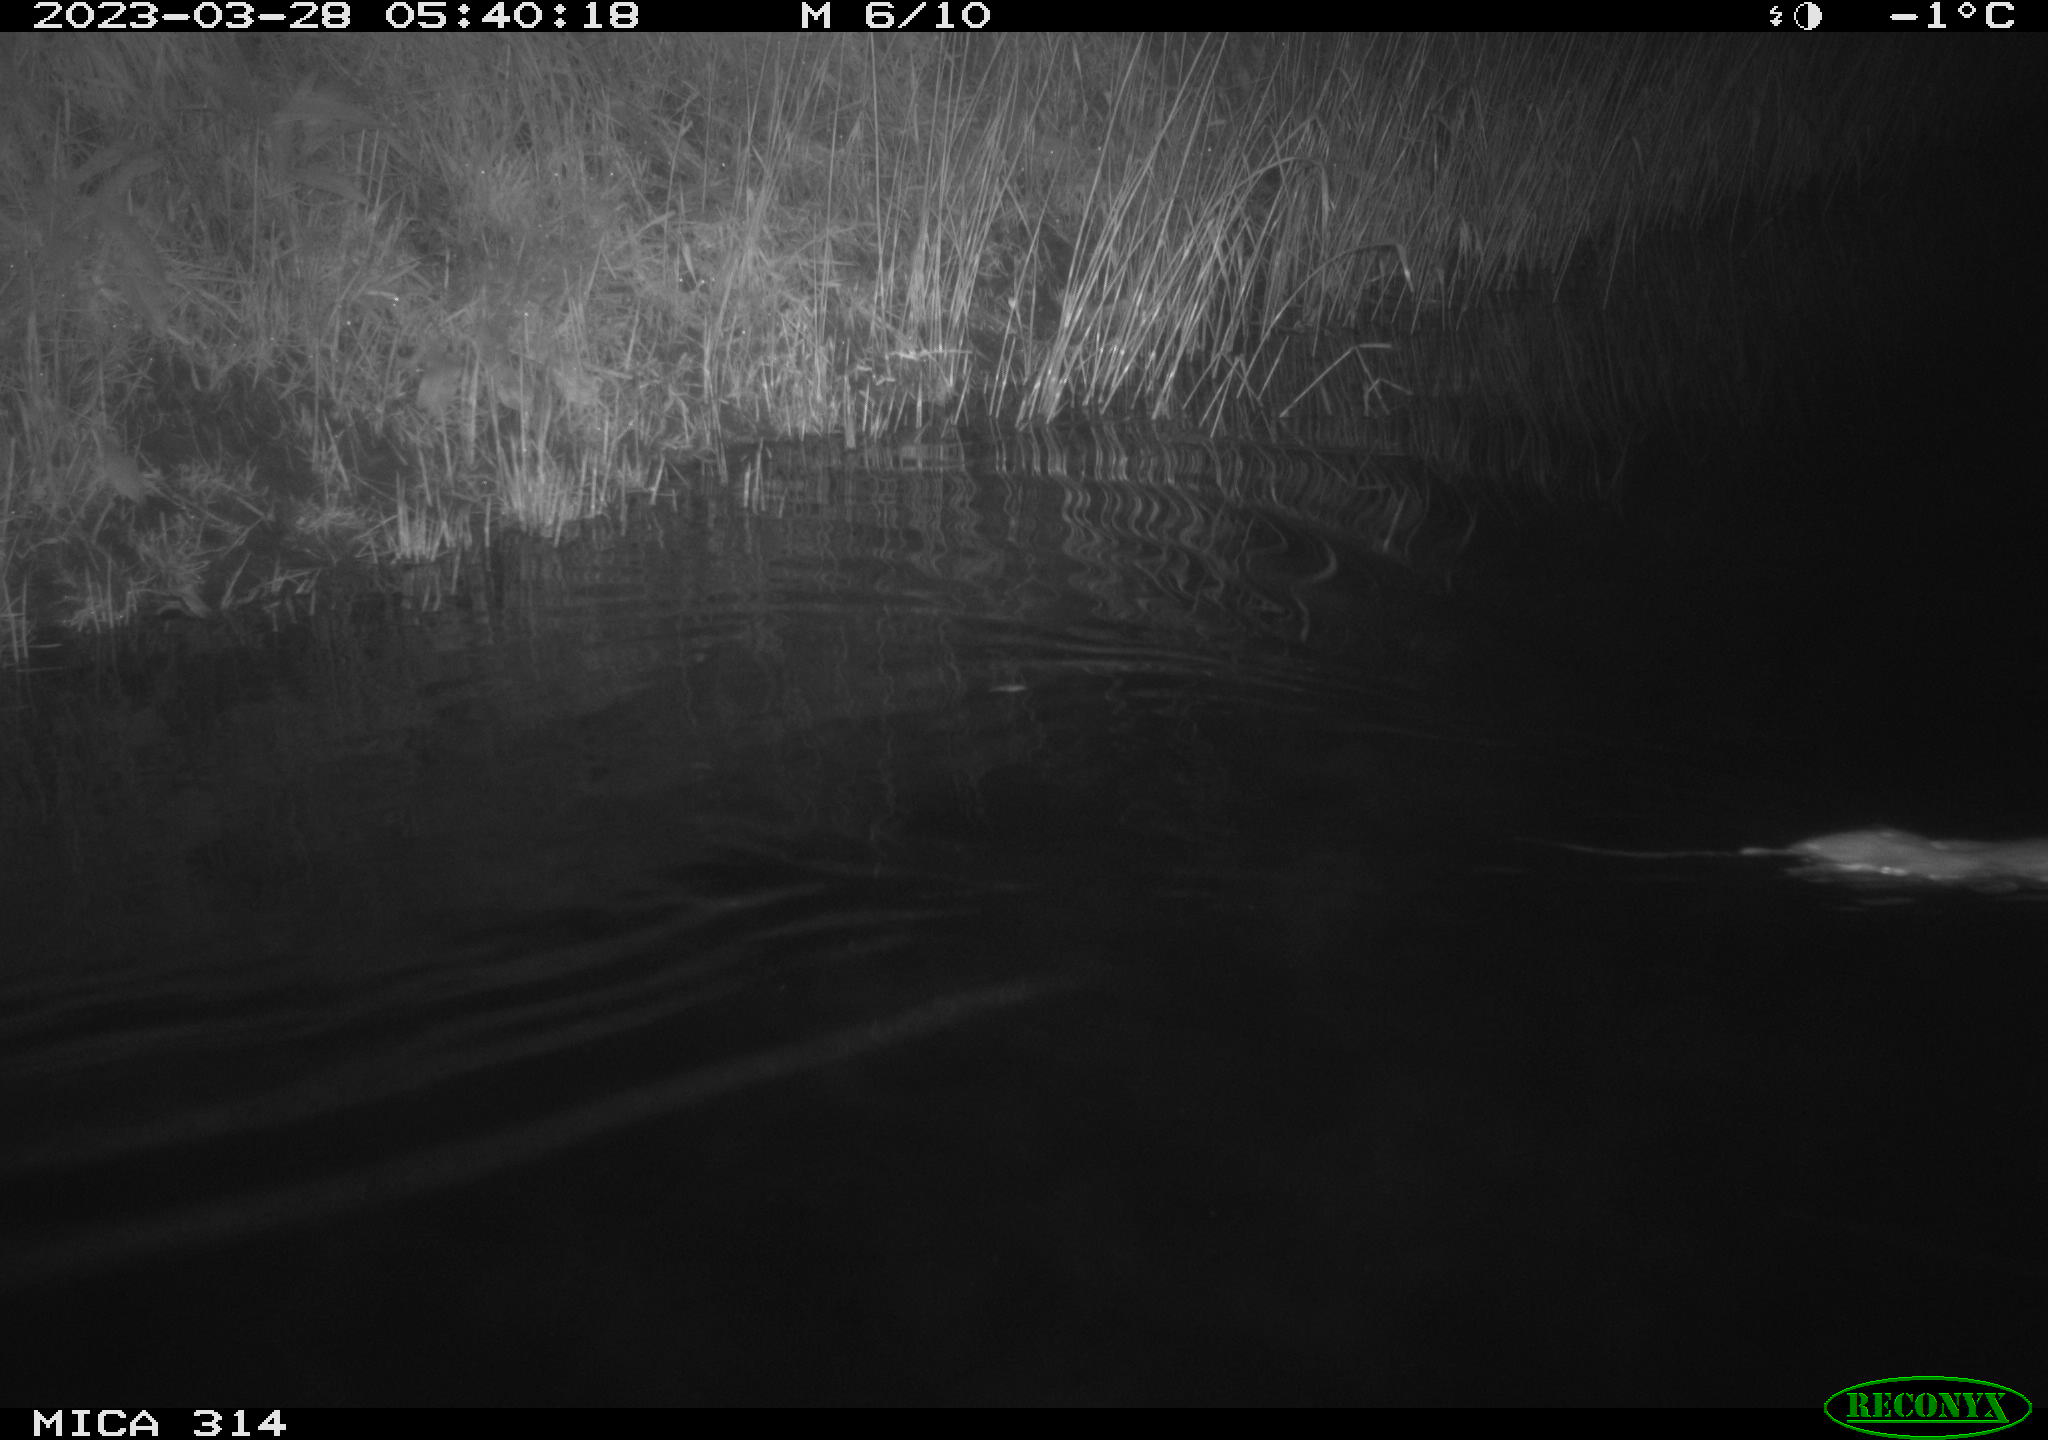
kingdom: Animalia
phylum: Chordata
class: Mammalia
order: Rodentia
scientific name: Rodentia
